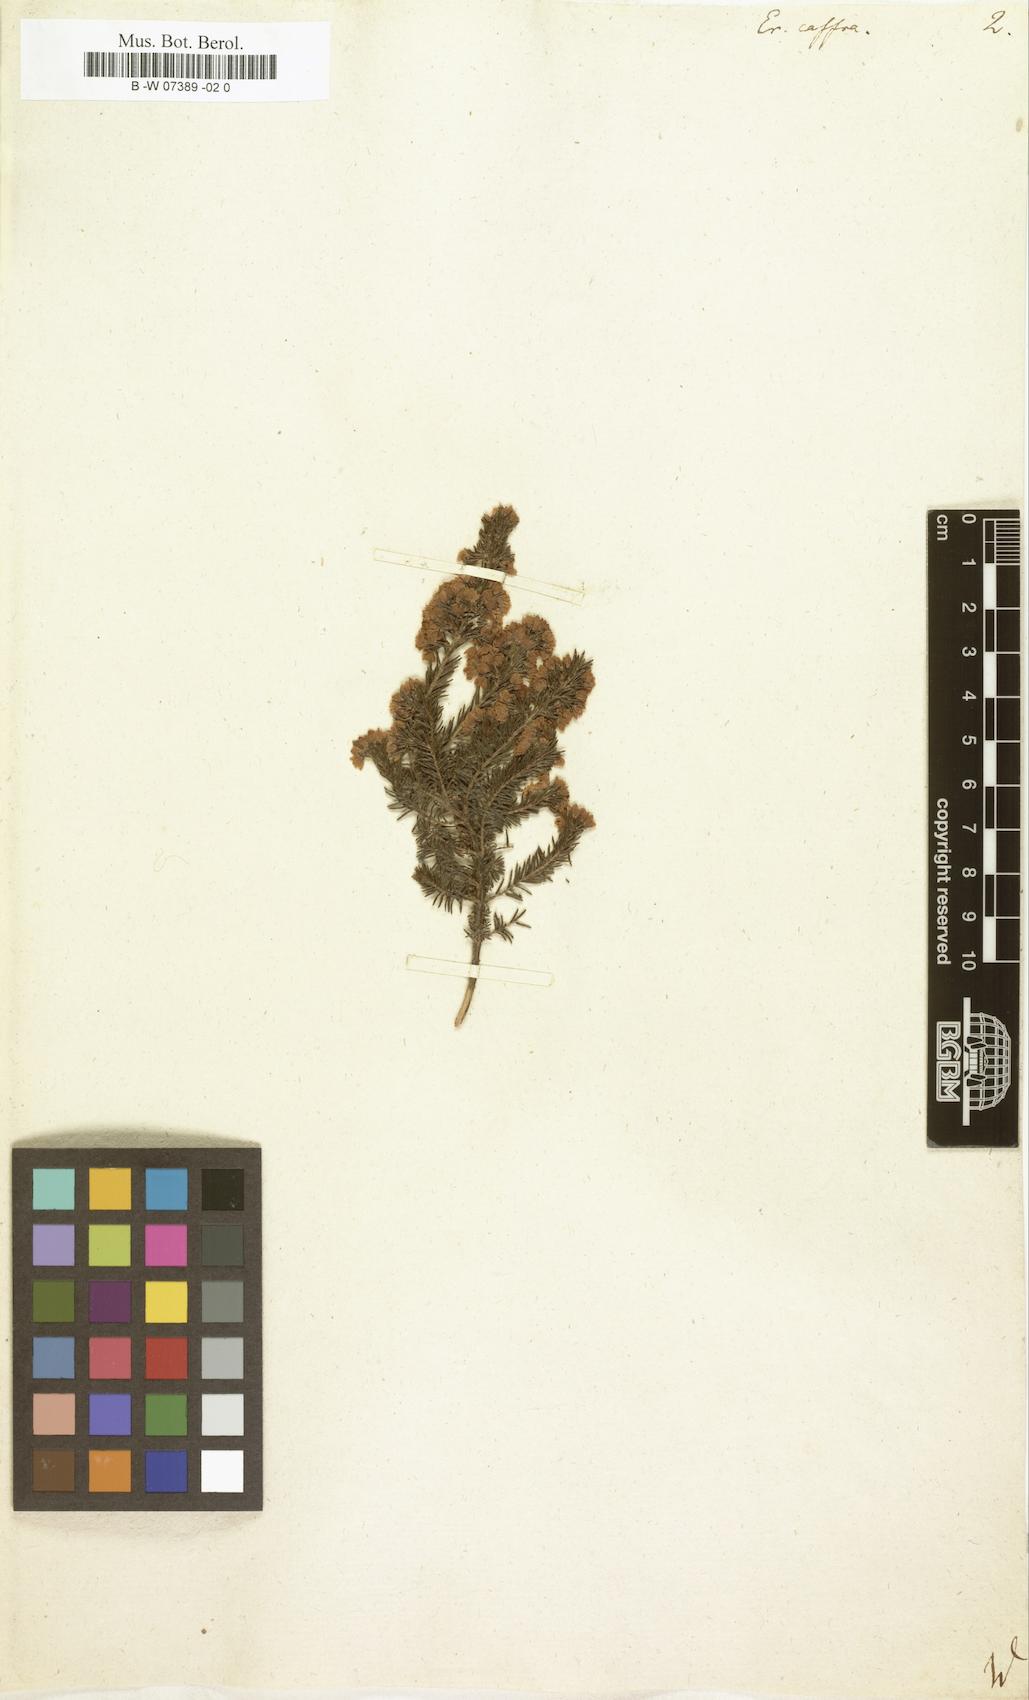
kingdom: Plantae
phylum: Tracheophyta
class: Magnoliopsida
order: Ericales
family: Ericaceae
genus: Erica
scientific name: Erica caffra
